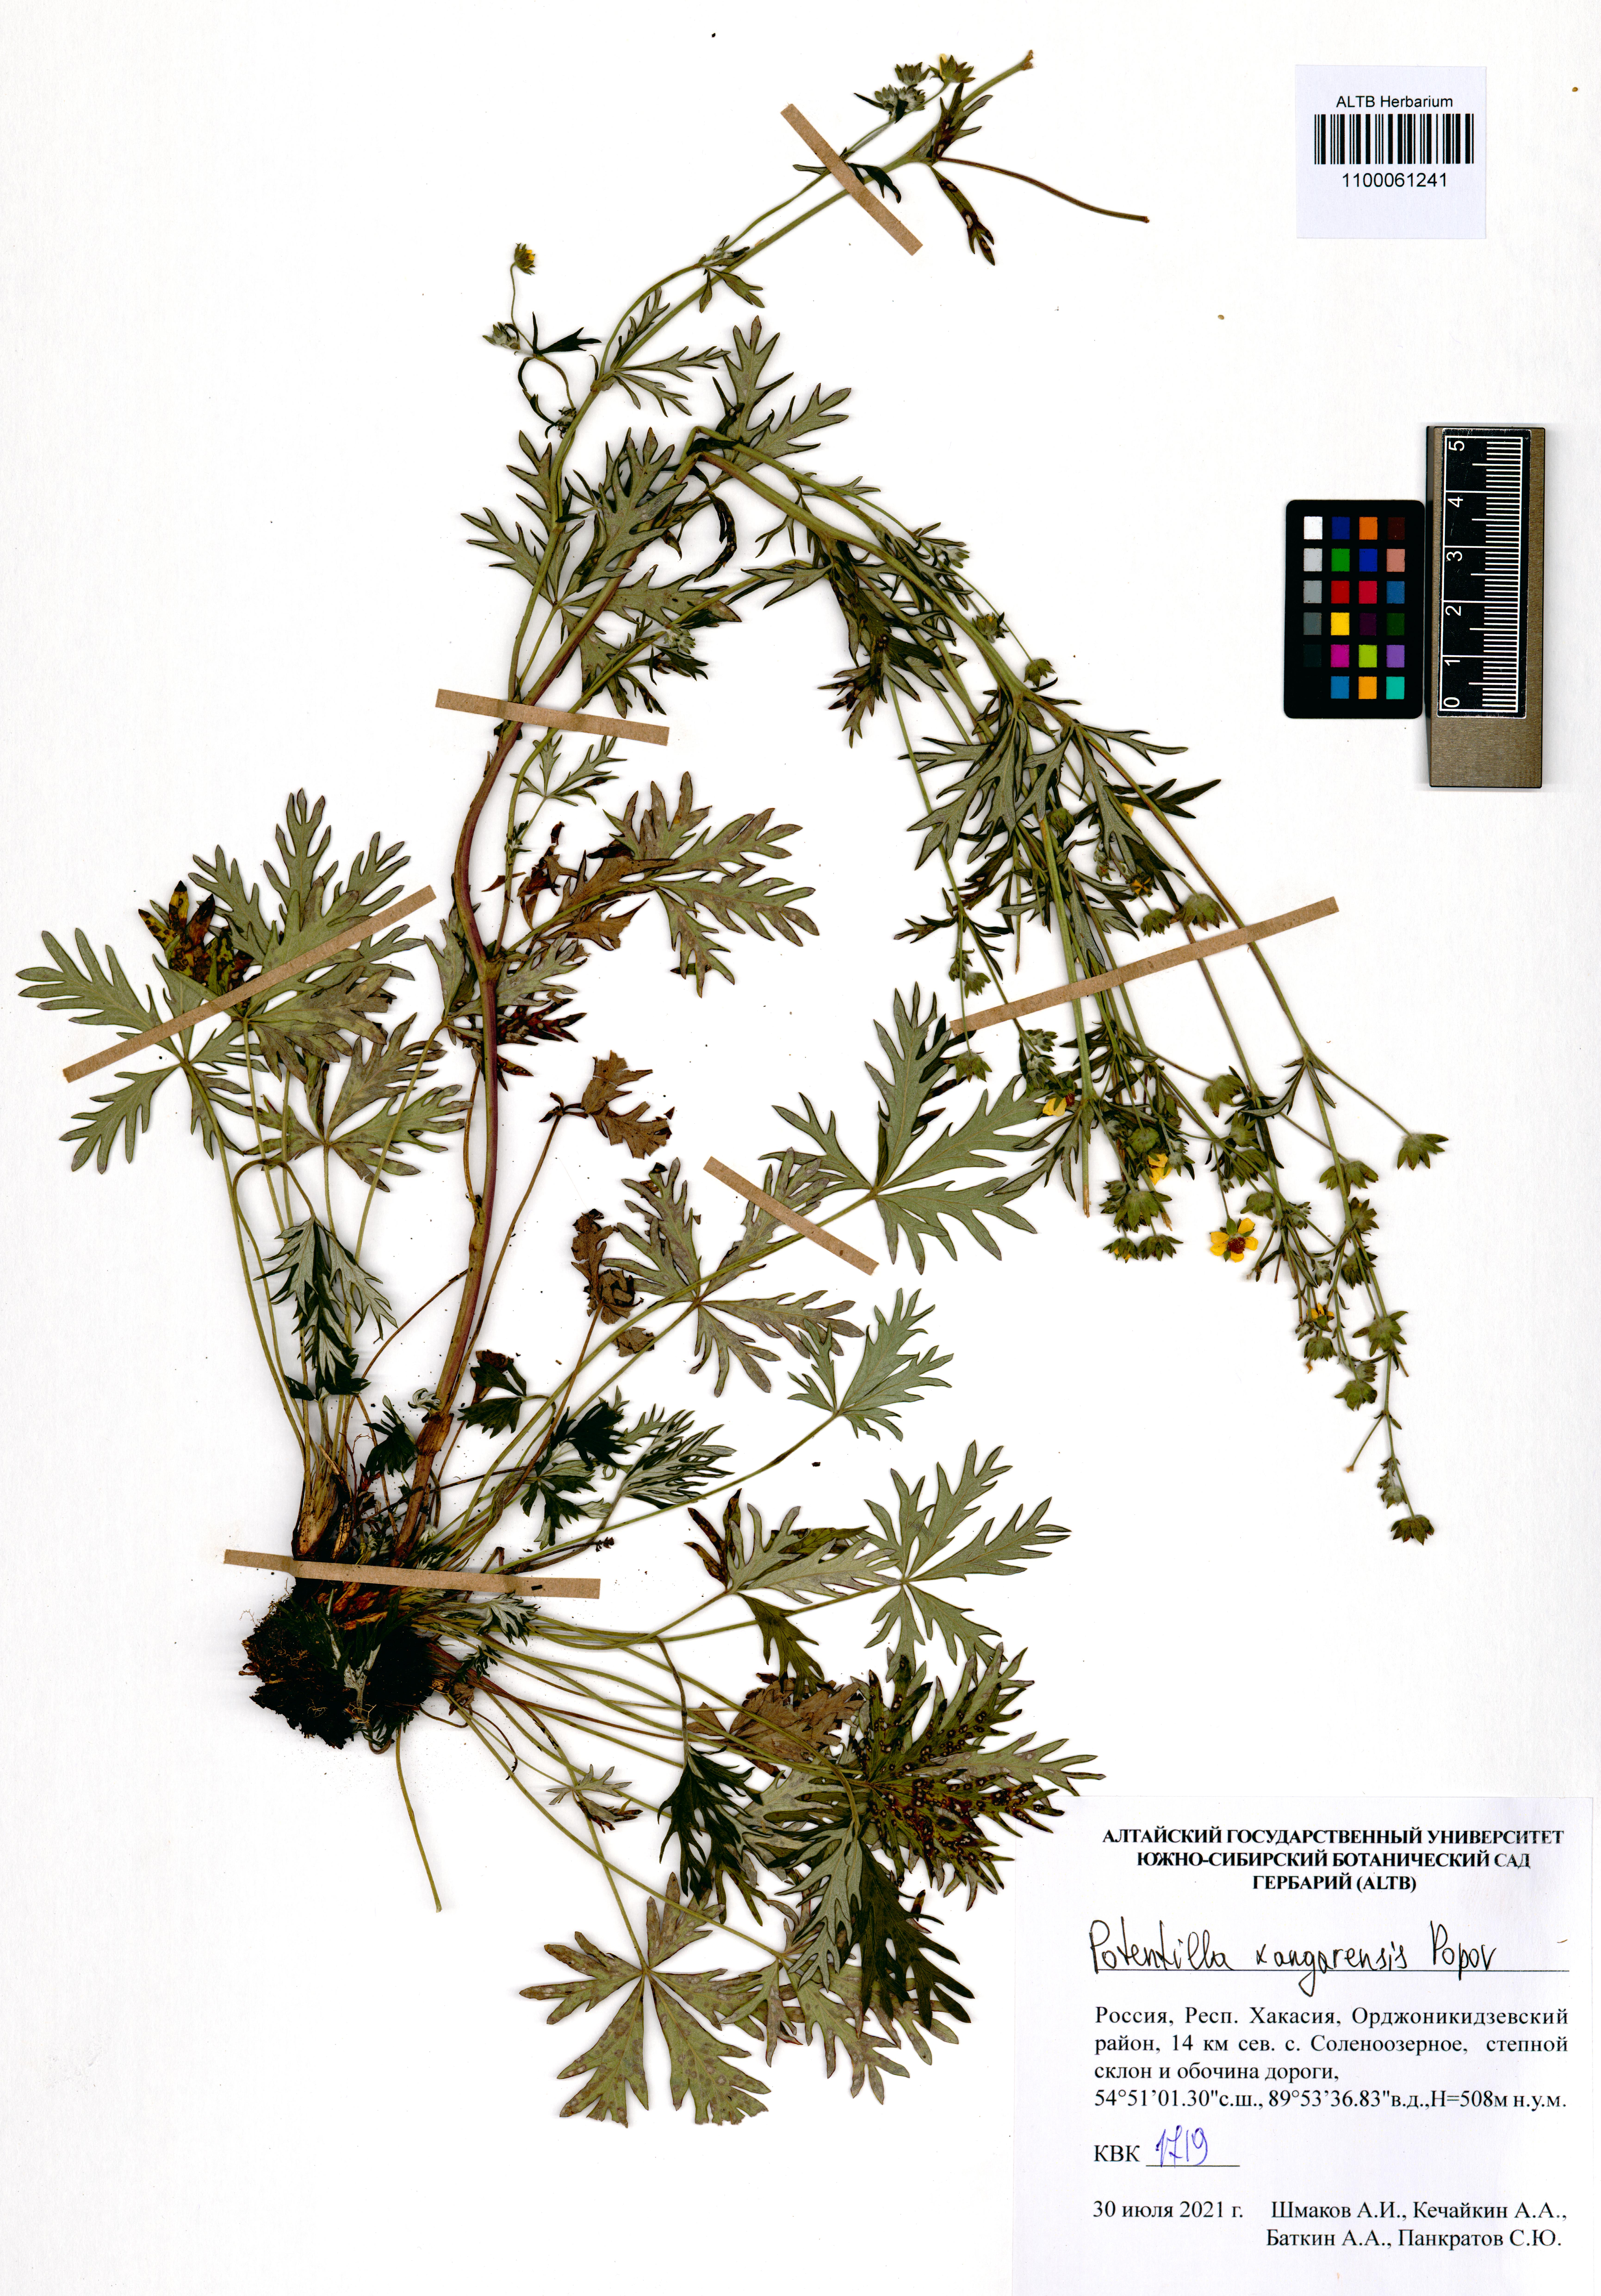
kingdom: Plantae
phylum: Tracheophyta
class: Magnoliopsida
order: Rosales
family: Rosaceae
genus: Potentilla
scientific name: Potentilla angarensis
